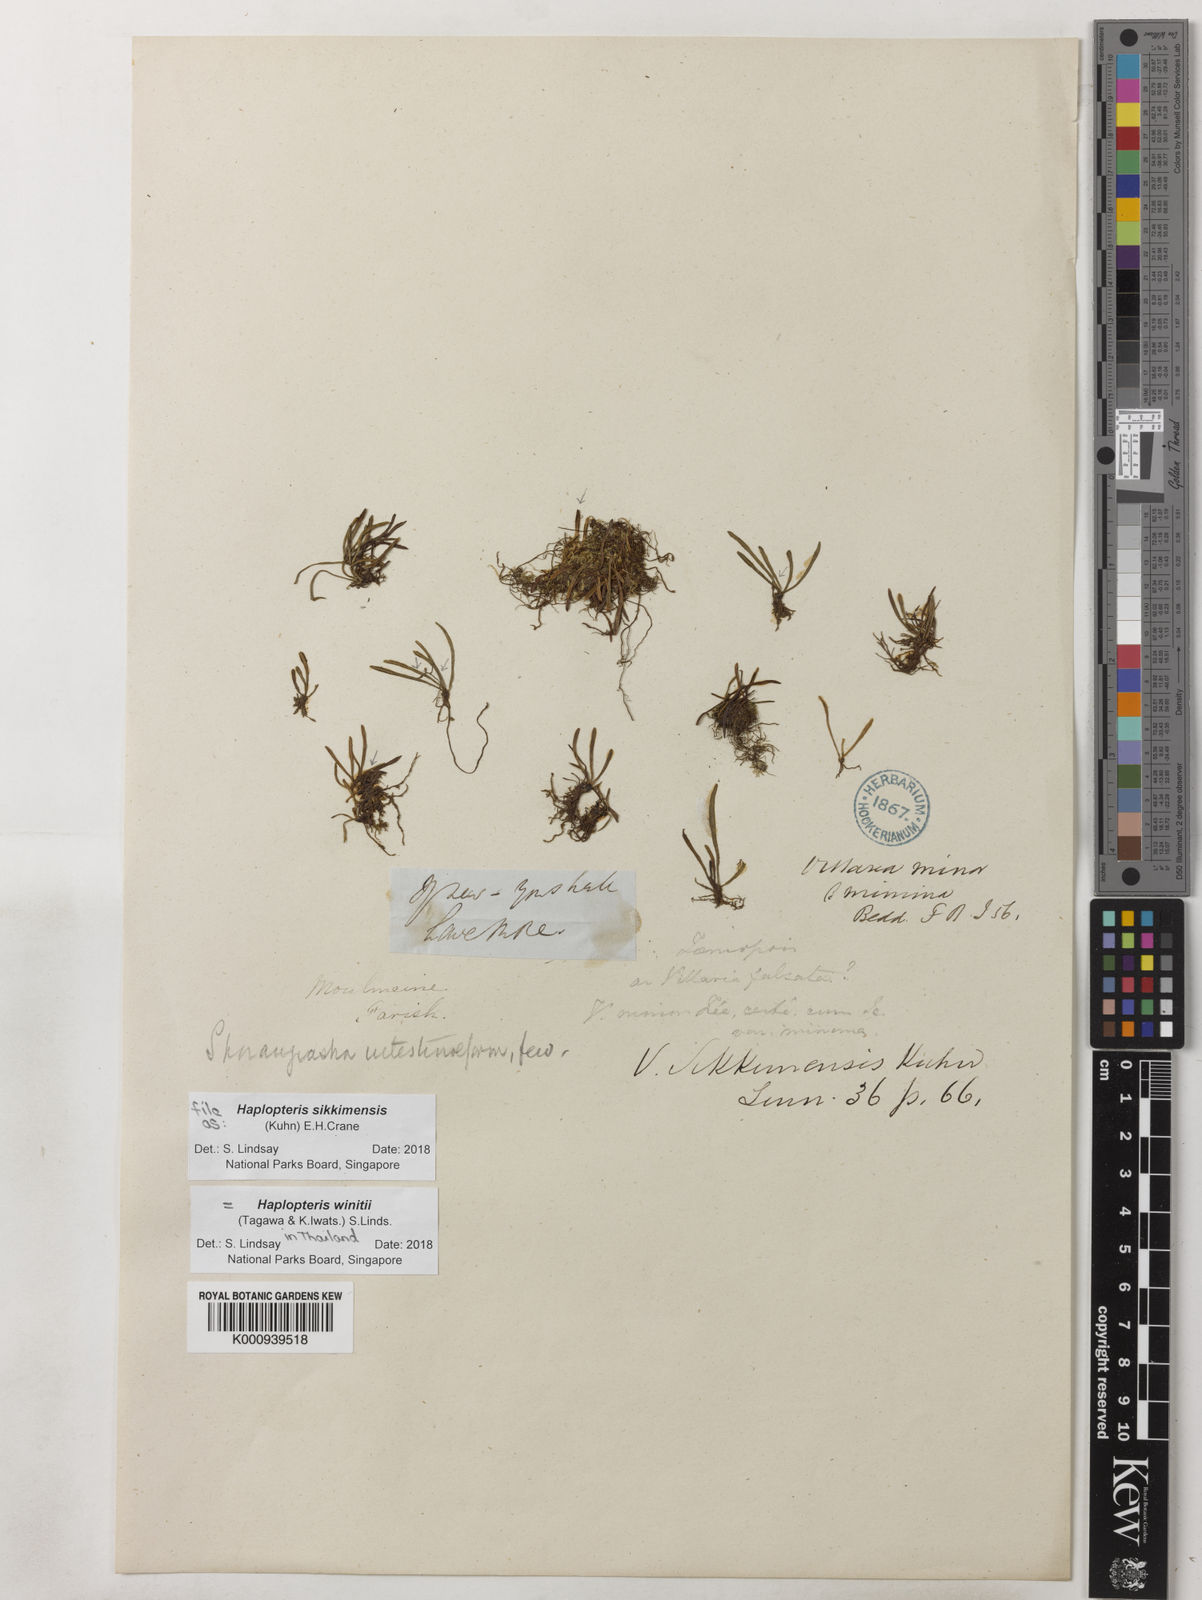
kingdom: Plantae
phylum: Tracheophyta
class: Polypodiopsida
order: Polypodiales
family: Pteridaceae
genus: Haplopteris
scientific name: Haplopteris sikkimensis
